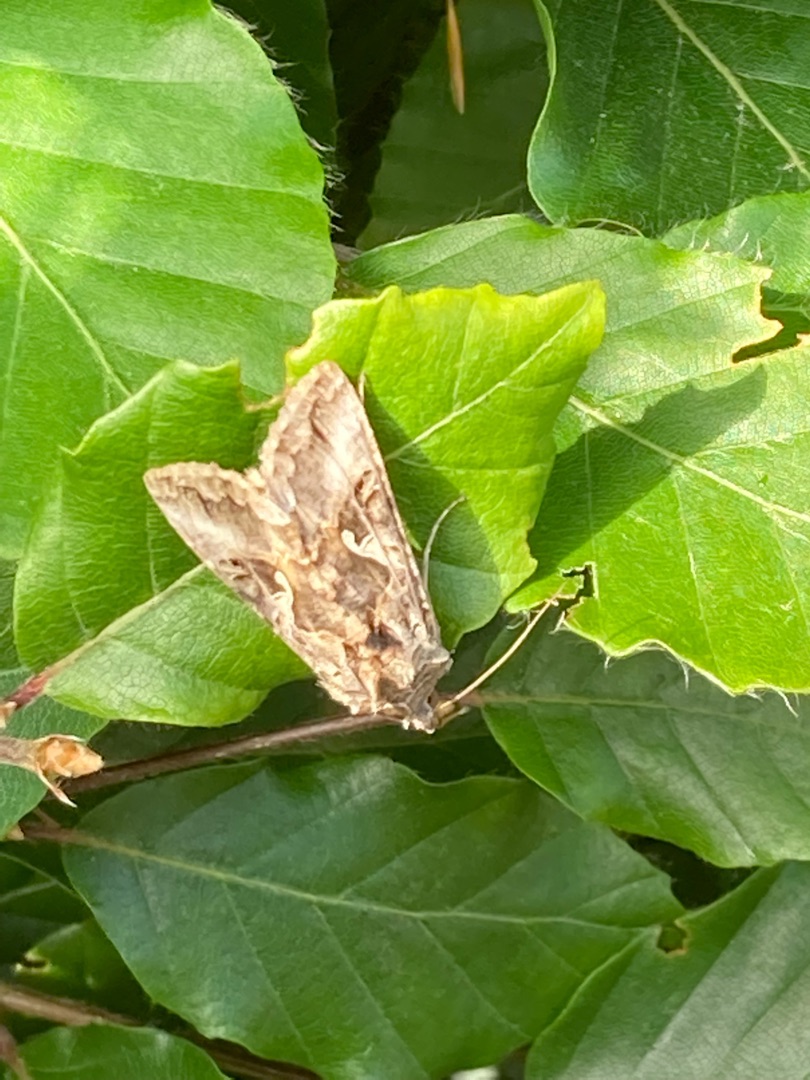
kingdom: Animalia
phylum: Arthropoda
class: Insecta
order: Lepidoptera
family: Noctuidae
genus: Autographa
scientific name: Autographa gamma
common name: Gammaugle
